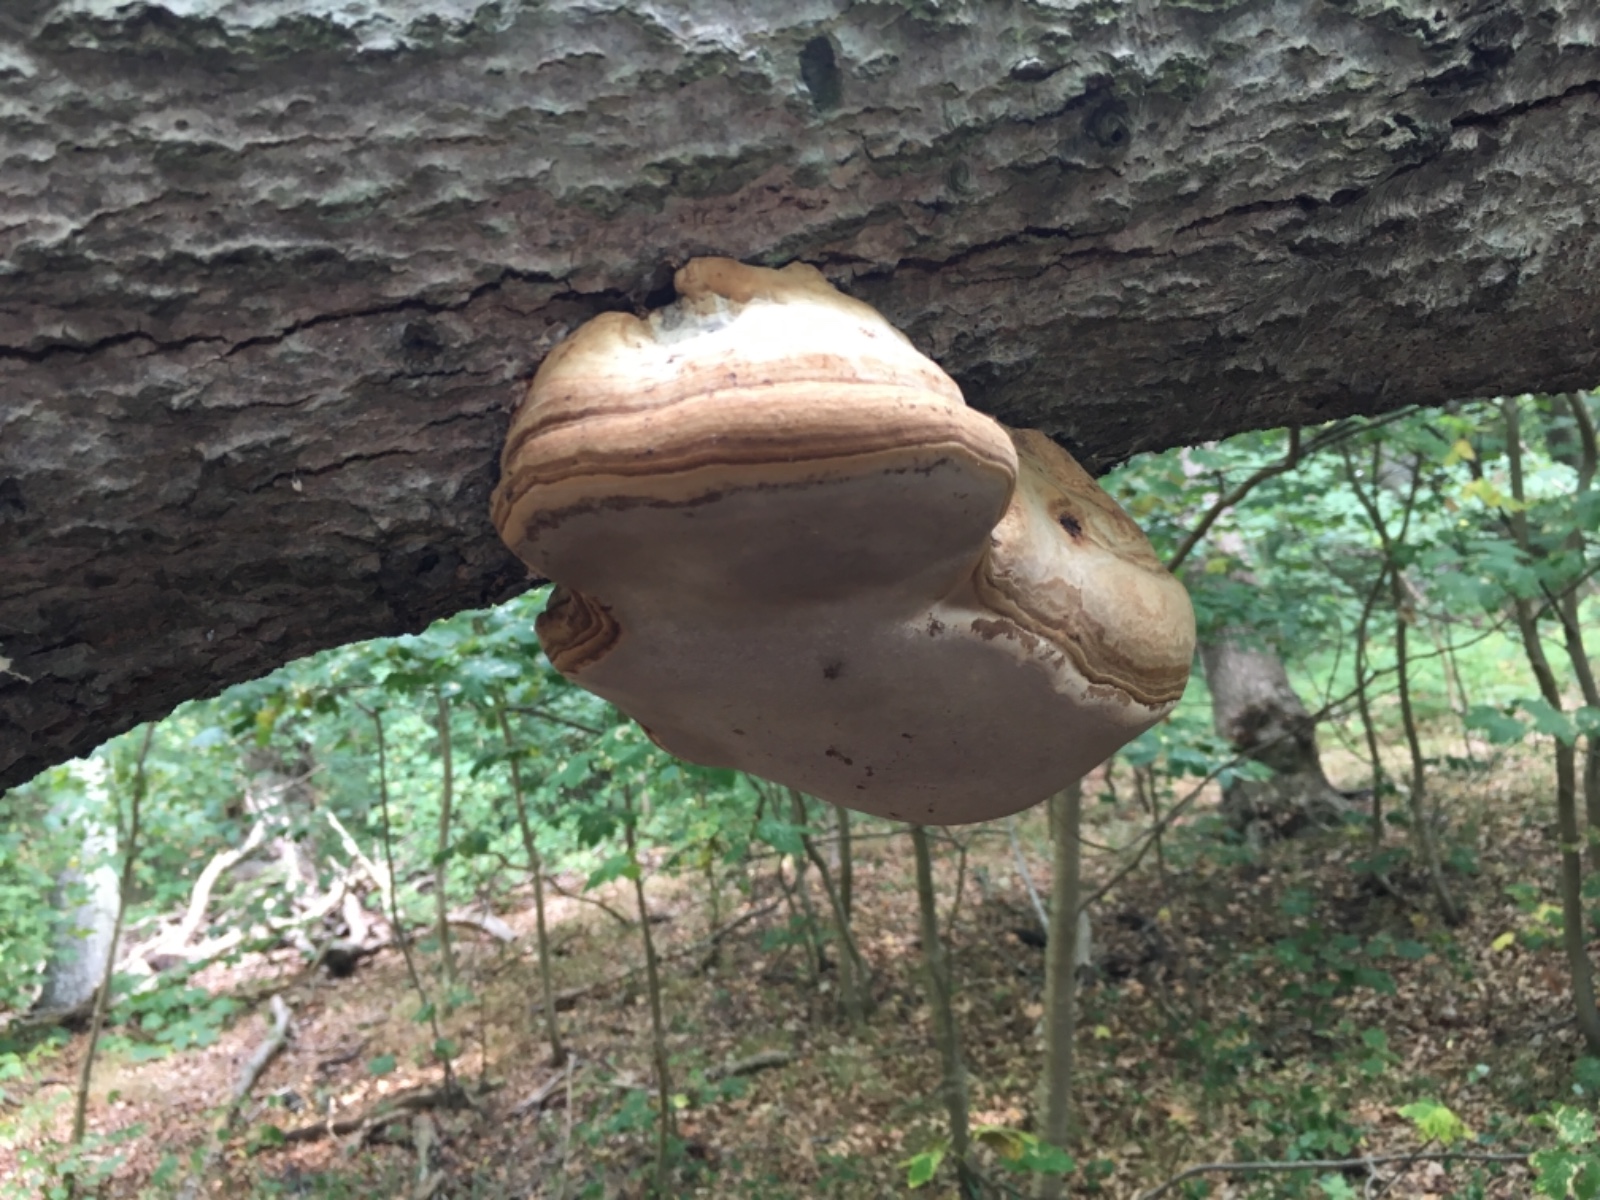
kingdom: Fungi
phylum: Basidiomycota
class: Agaricomycetes
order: Polyporales
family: Polyporaceae
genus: Fomes
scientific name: Fomes fomentarius
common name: tøndersvamp
